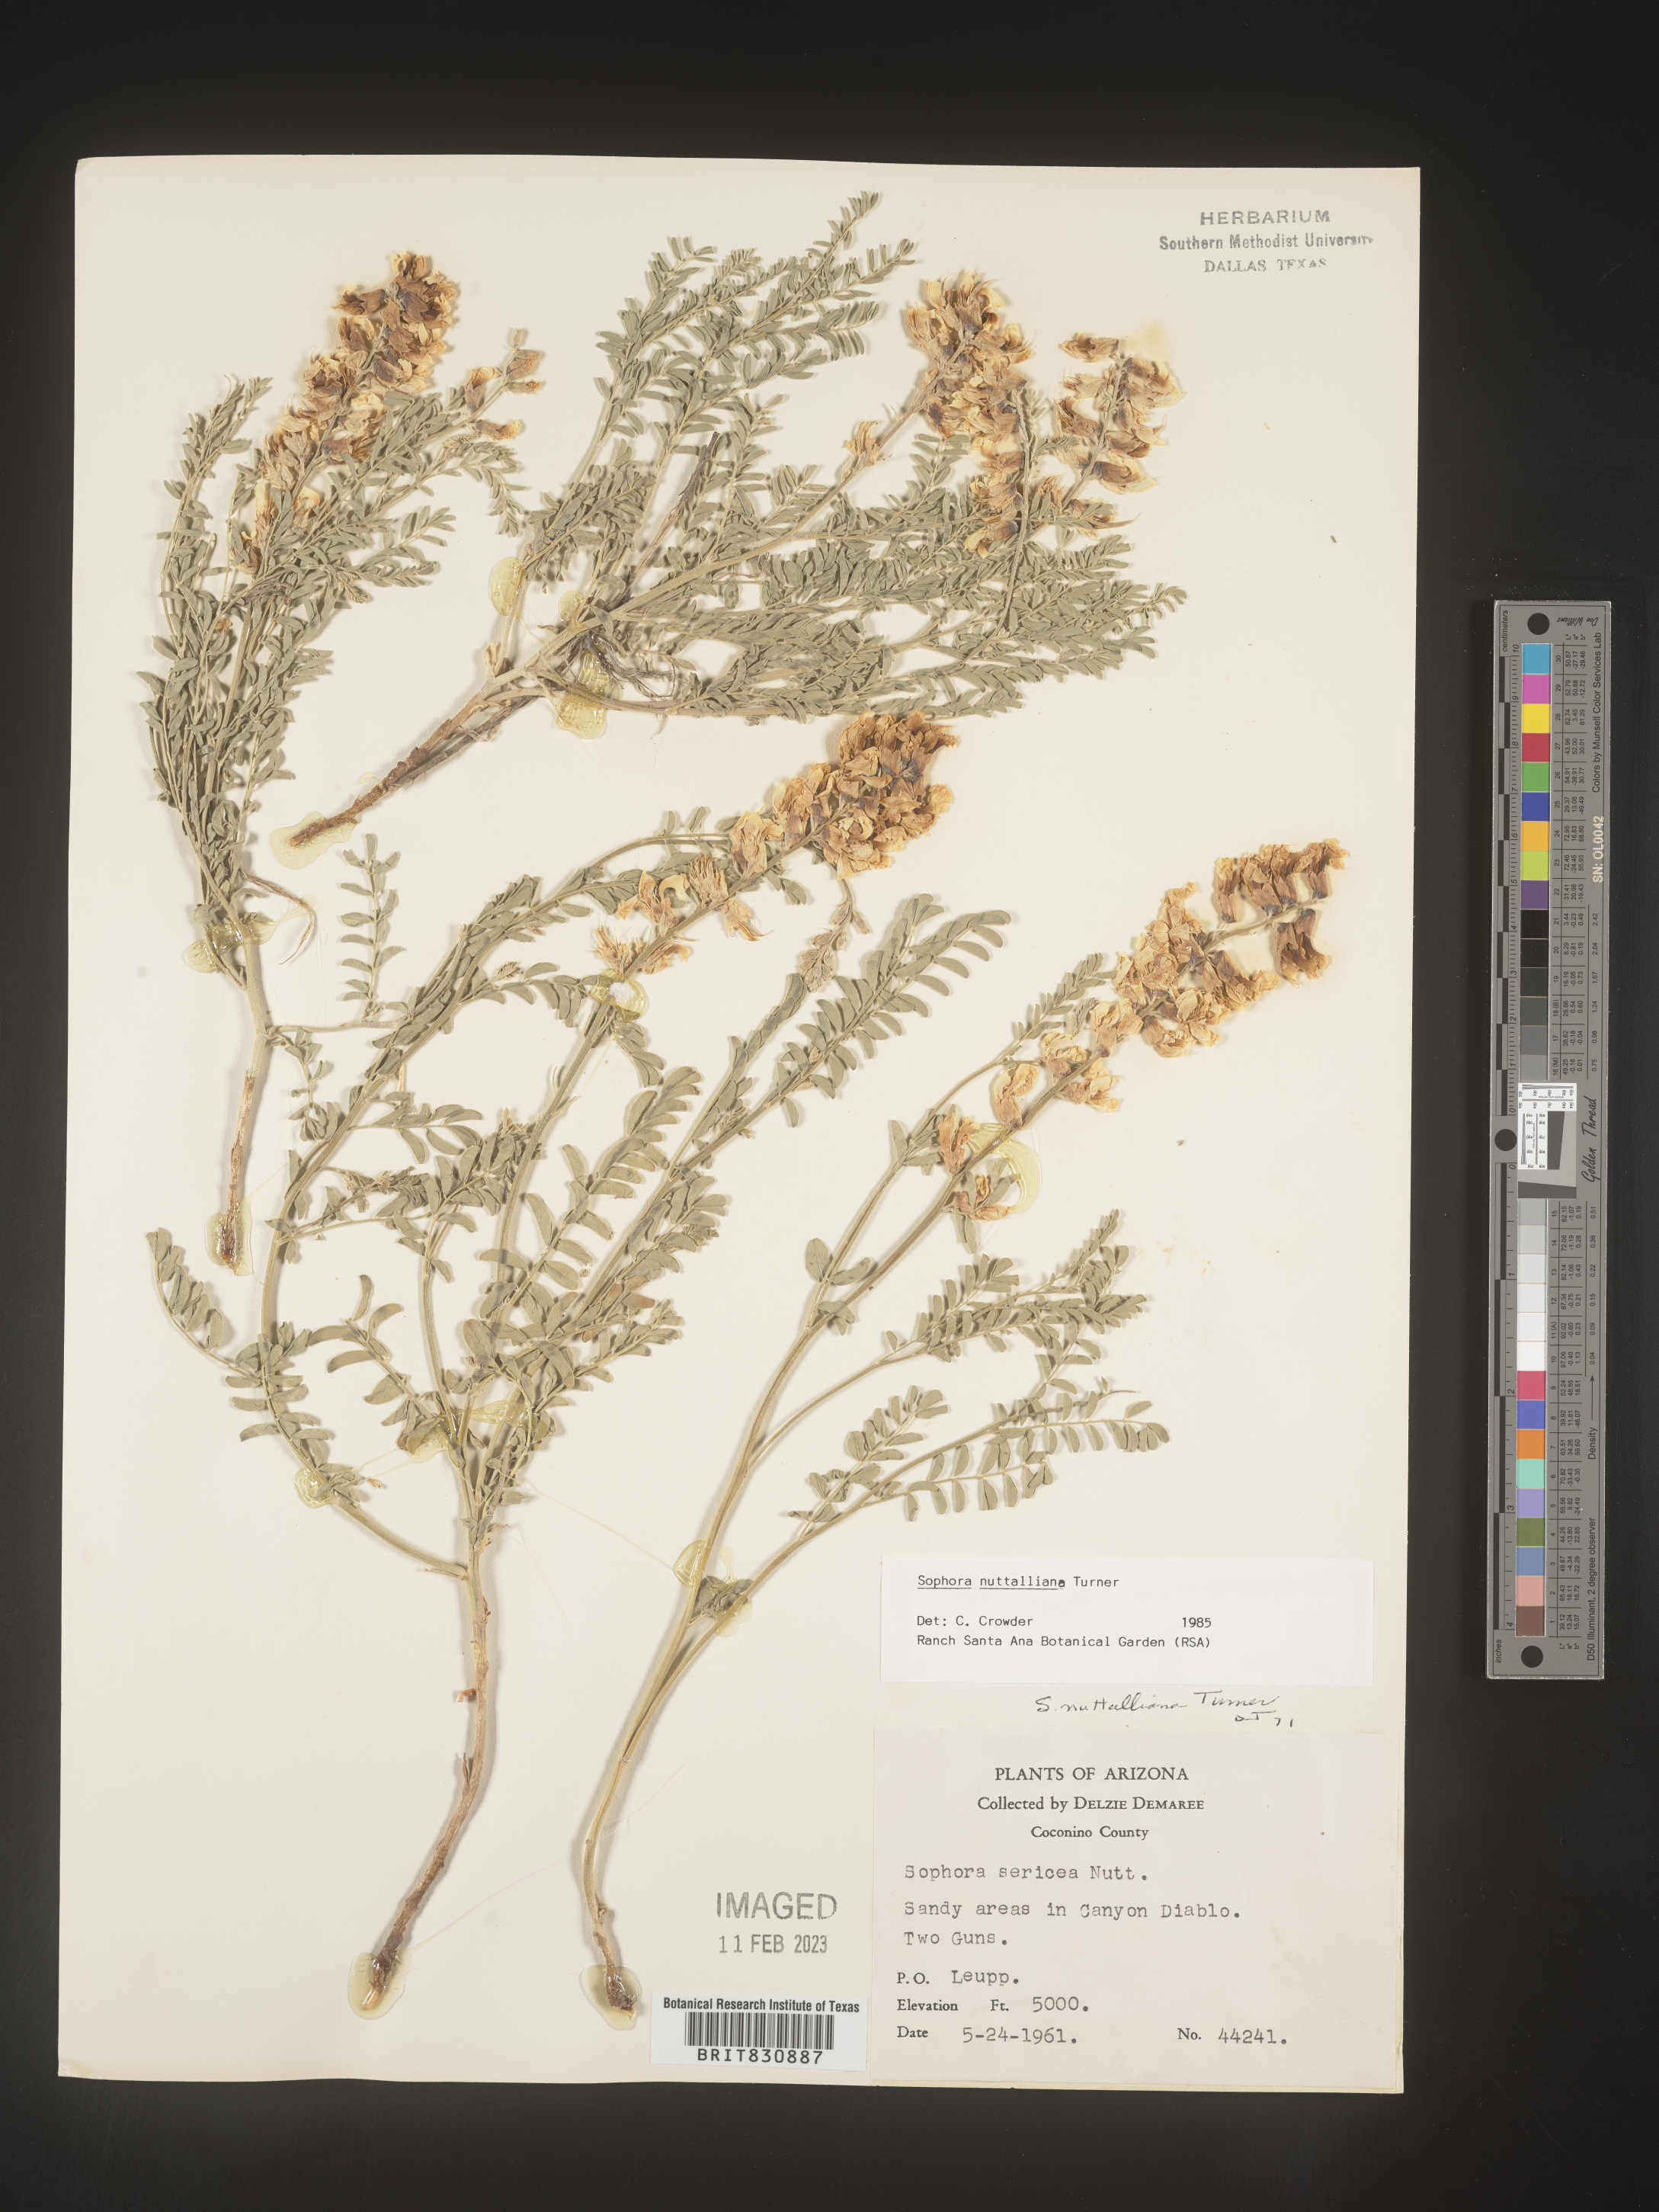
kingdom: Plantae
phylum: Tracheophyta
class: Magnoliopsida
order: Fabales
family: Fabaceae
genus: Sophora
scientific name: Sophora nuttalliana
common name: Silky sophora
